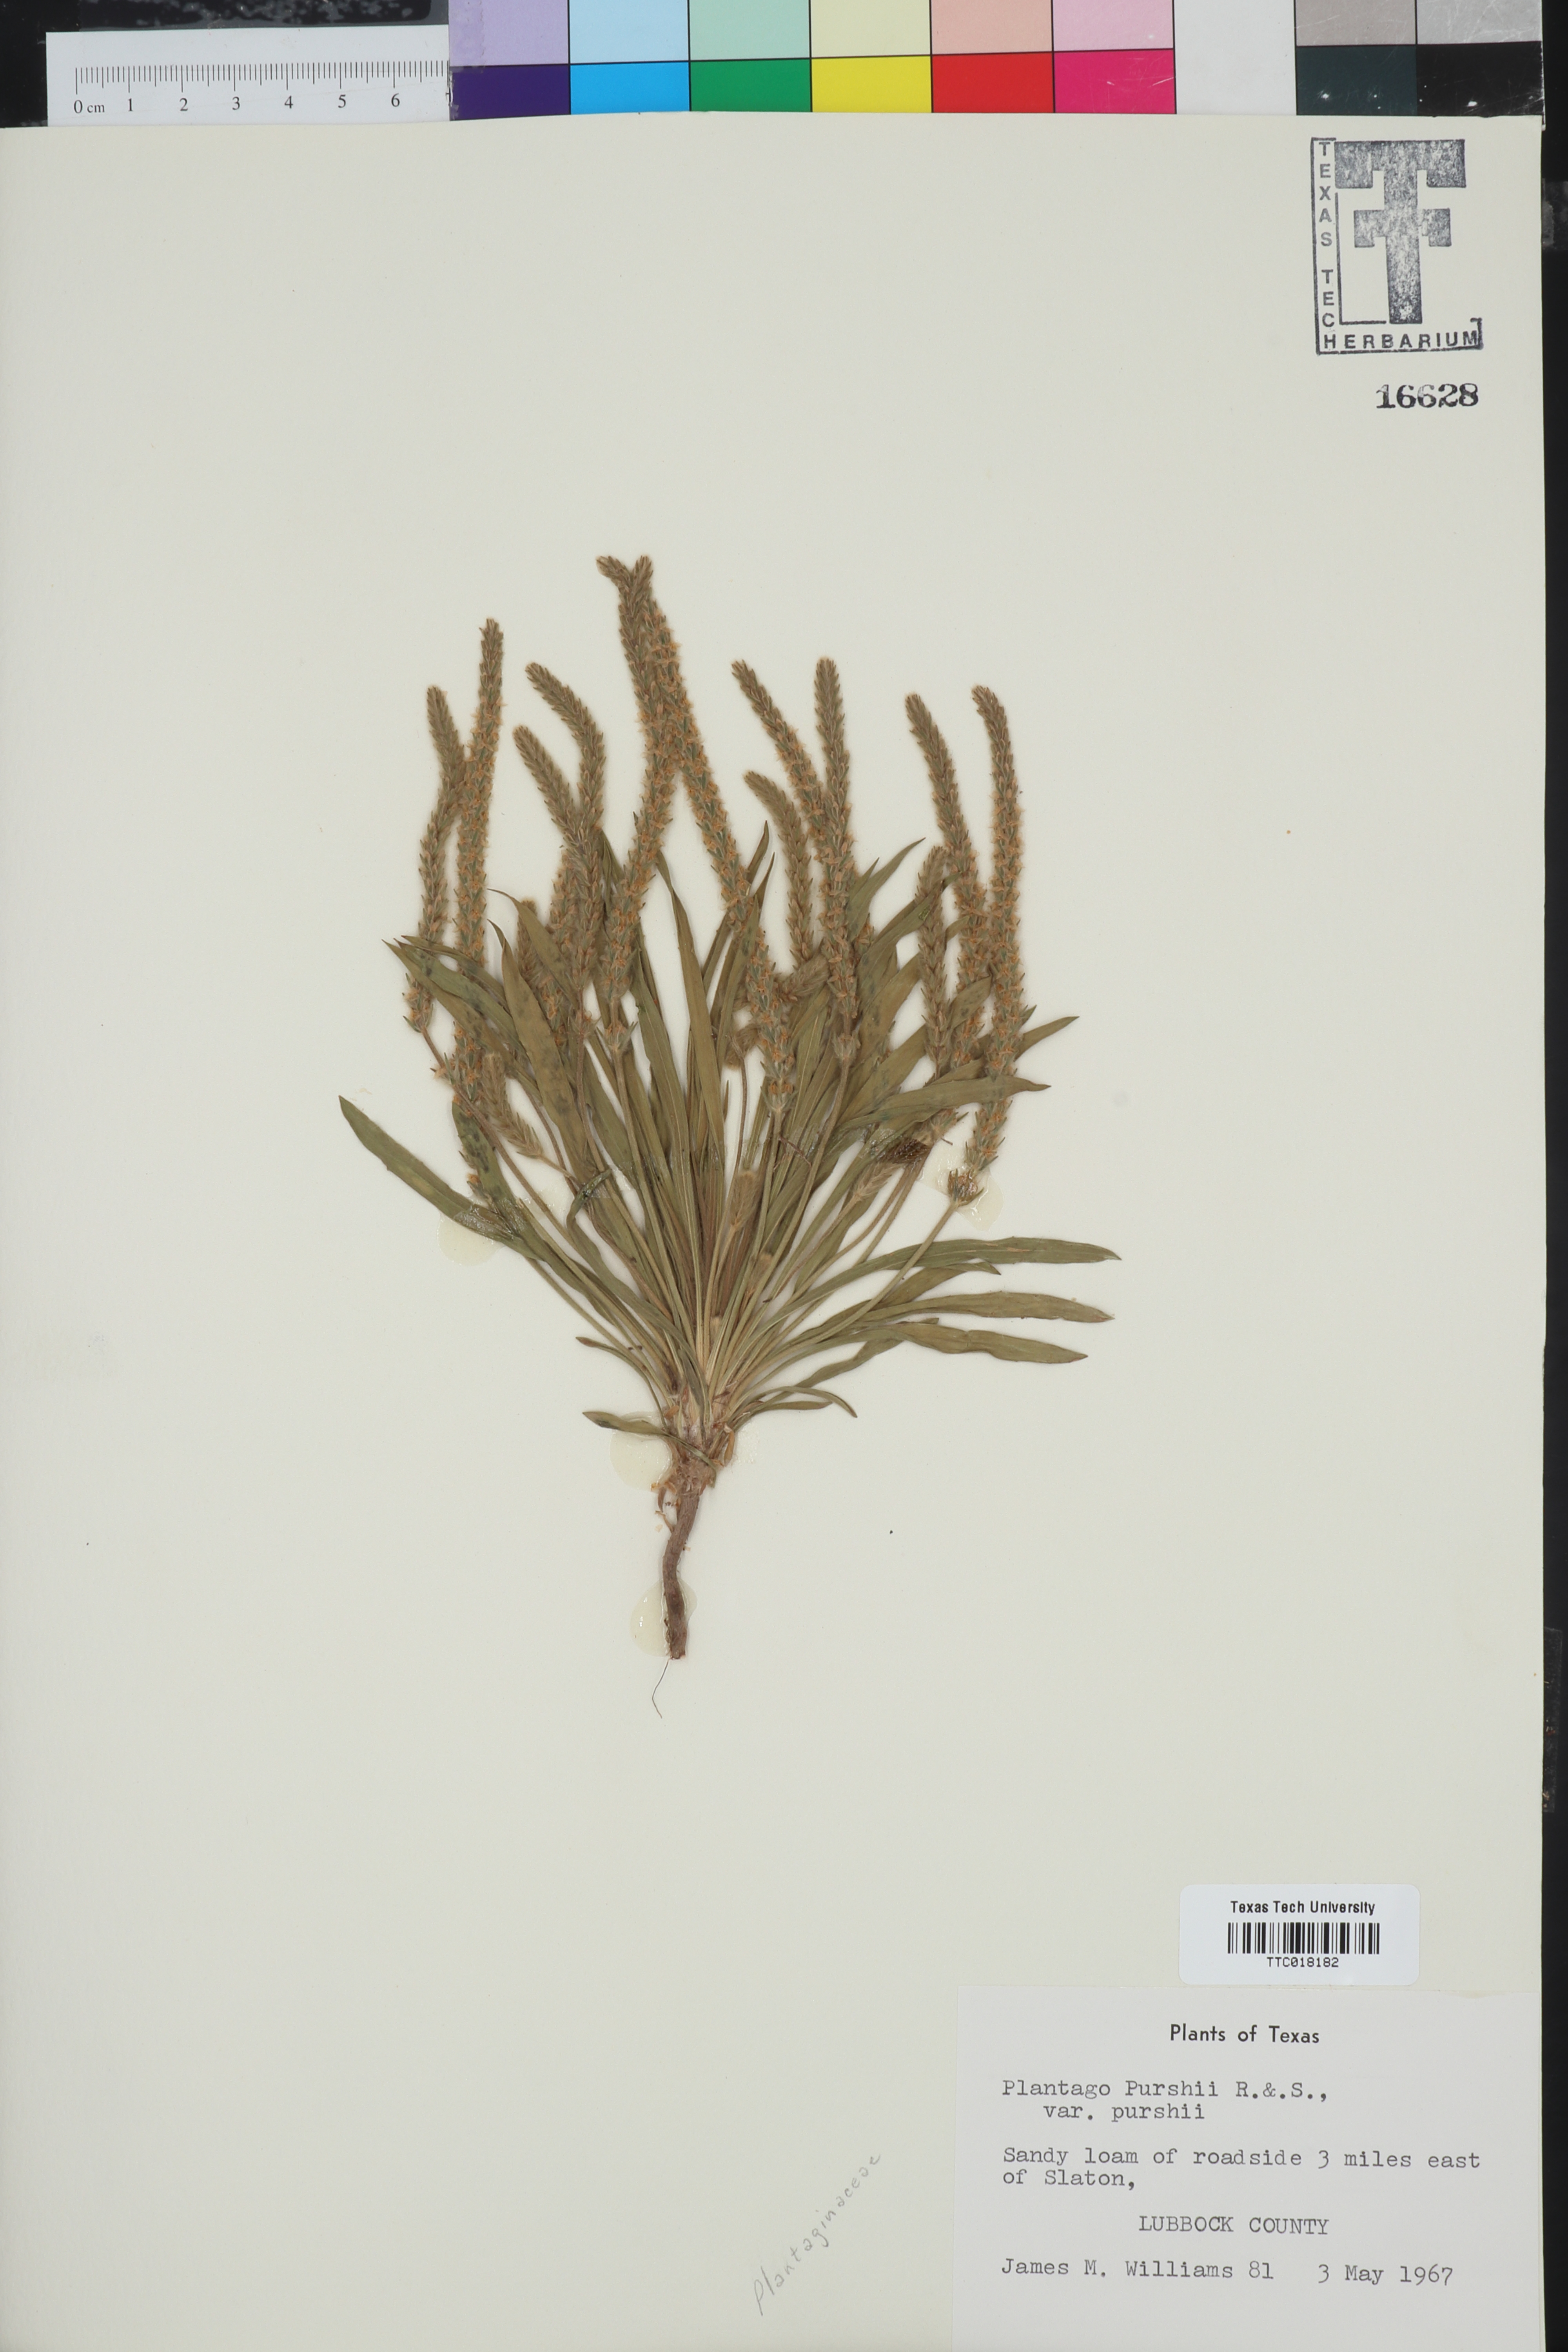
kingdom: Plantae
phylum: Tracheophyta
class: Magnoliopsida
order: Lamiales
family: Plantaginaceae
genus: Plantago
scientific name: Plantago patagonica
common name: Patagonia indian-wheat
